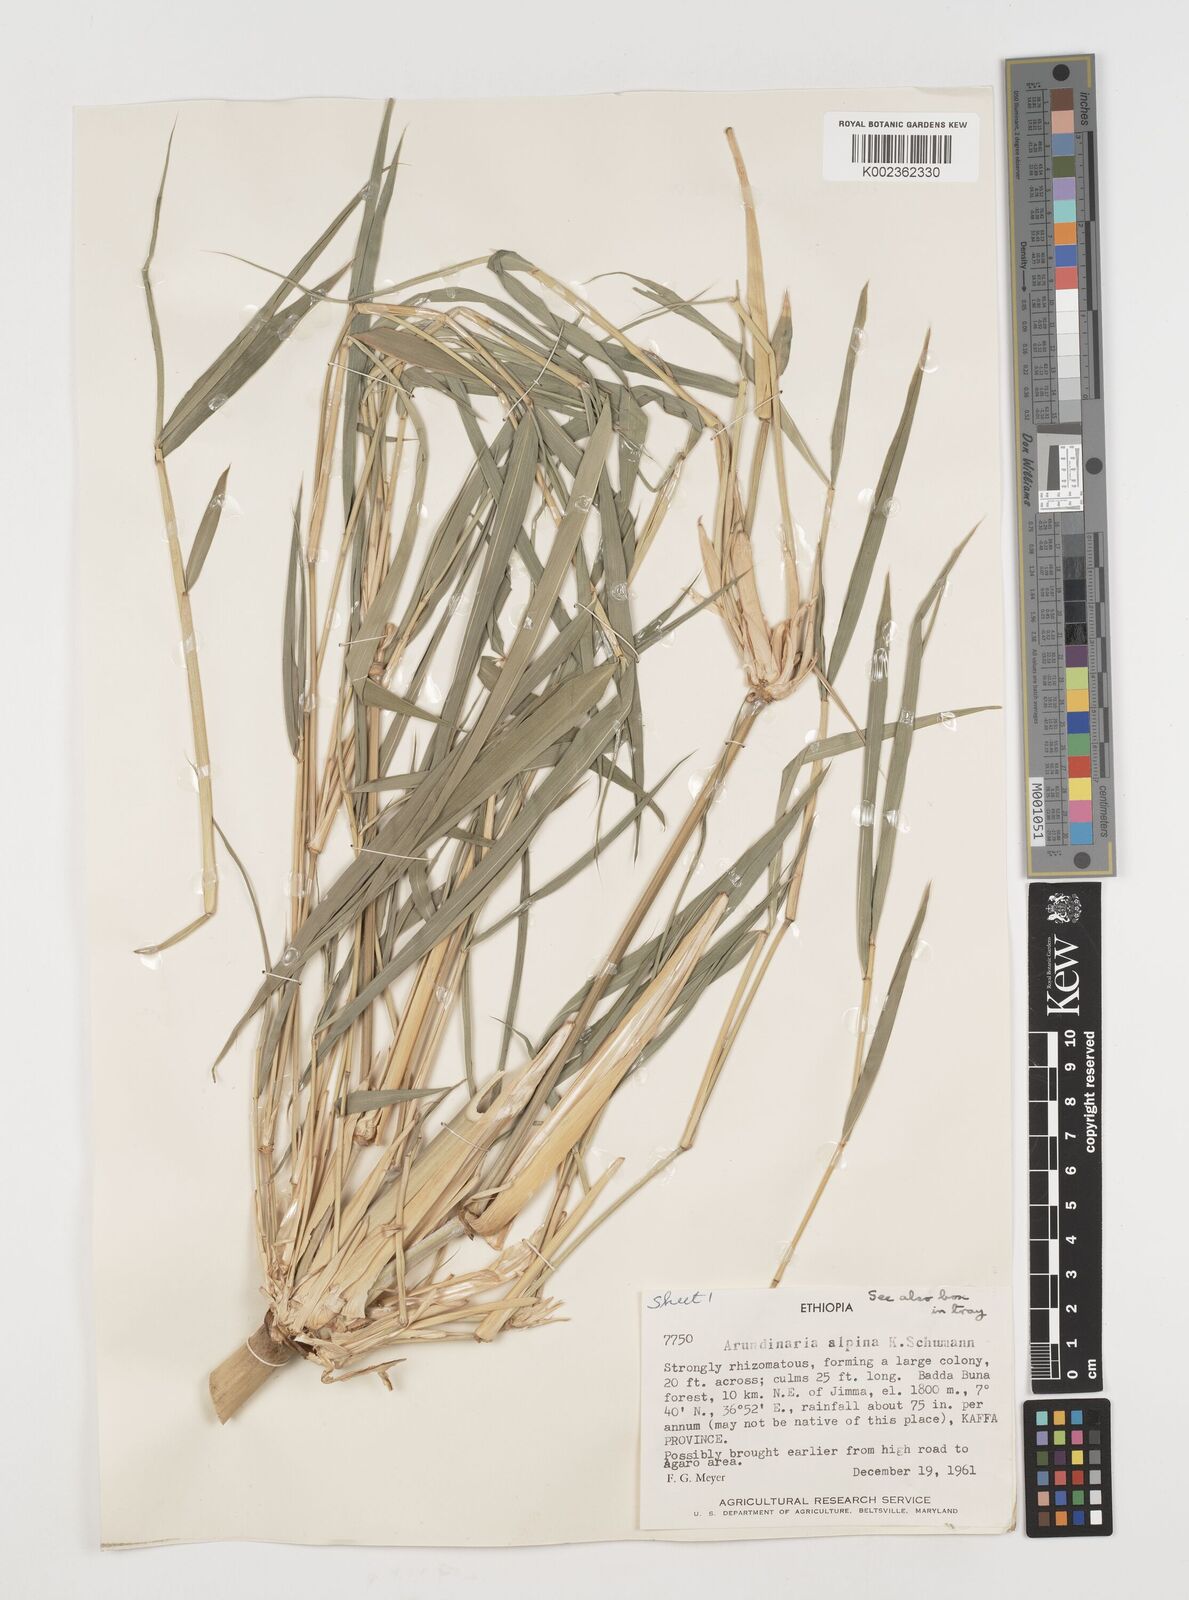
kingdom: Plantae
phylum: Tracheophyta
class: Liliopsida
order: Poales
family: Poaceae
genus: Oldeania
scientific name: Oldeania alpina
